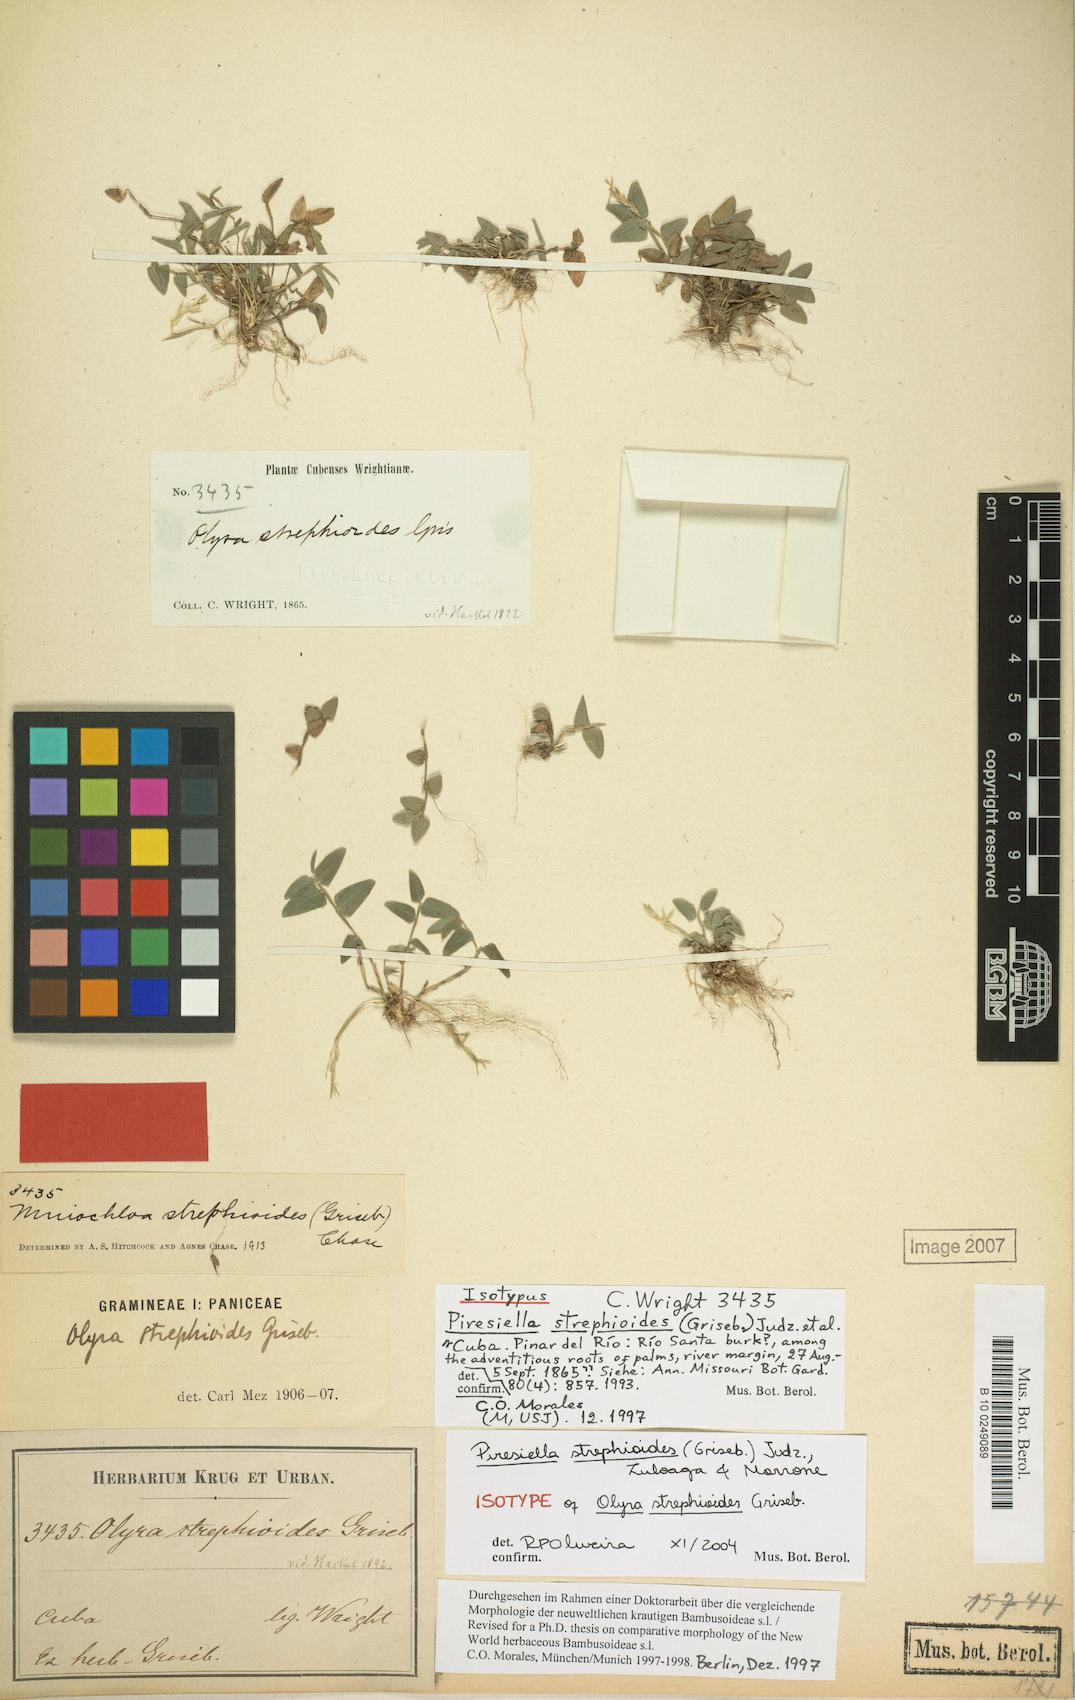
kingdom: Plantae
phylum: Tracheophyta
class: Liliopsida
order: Poales
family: Poaceae
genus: Piresiella
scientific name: Piresiella strephioides
